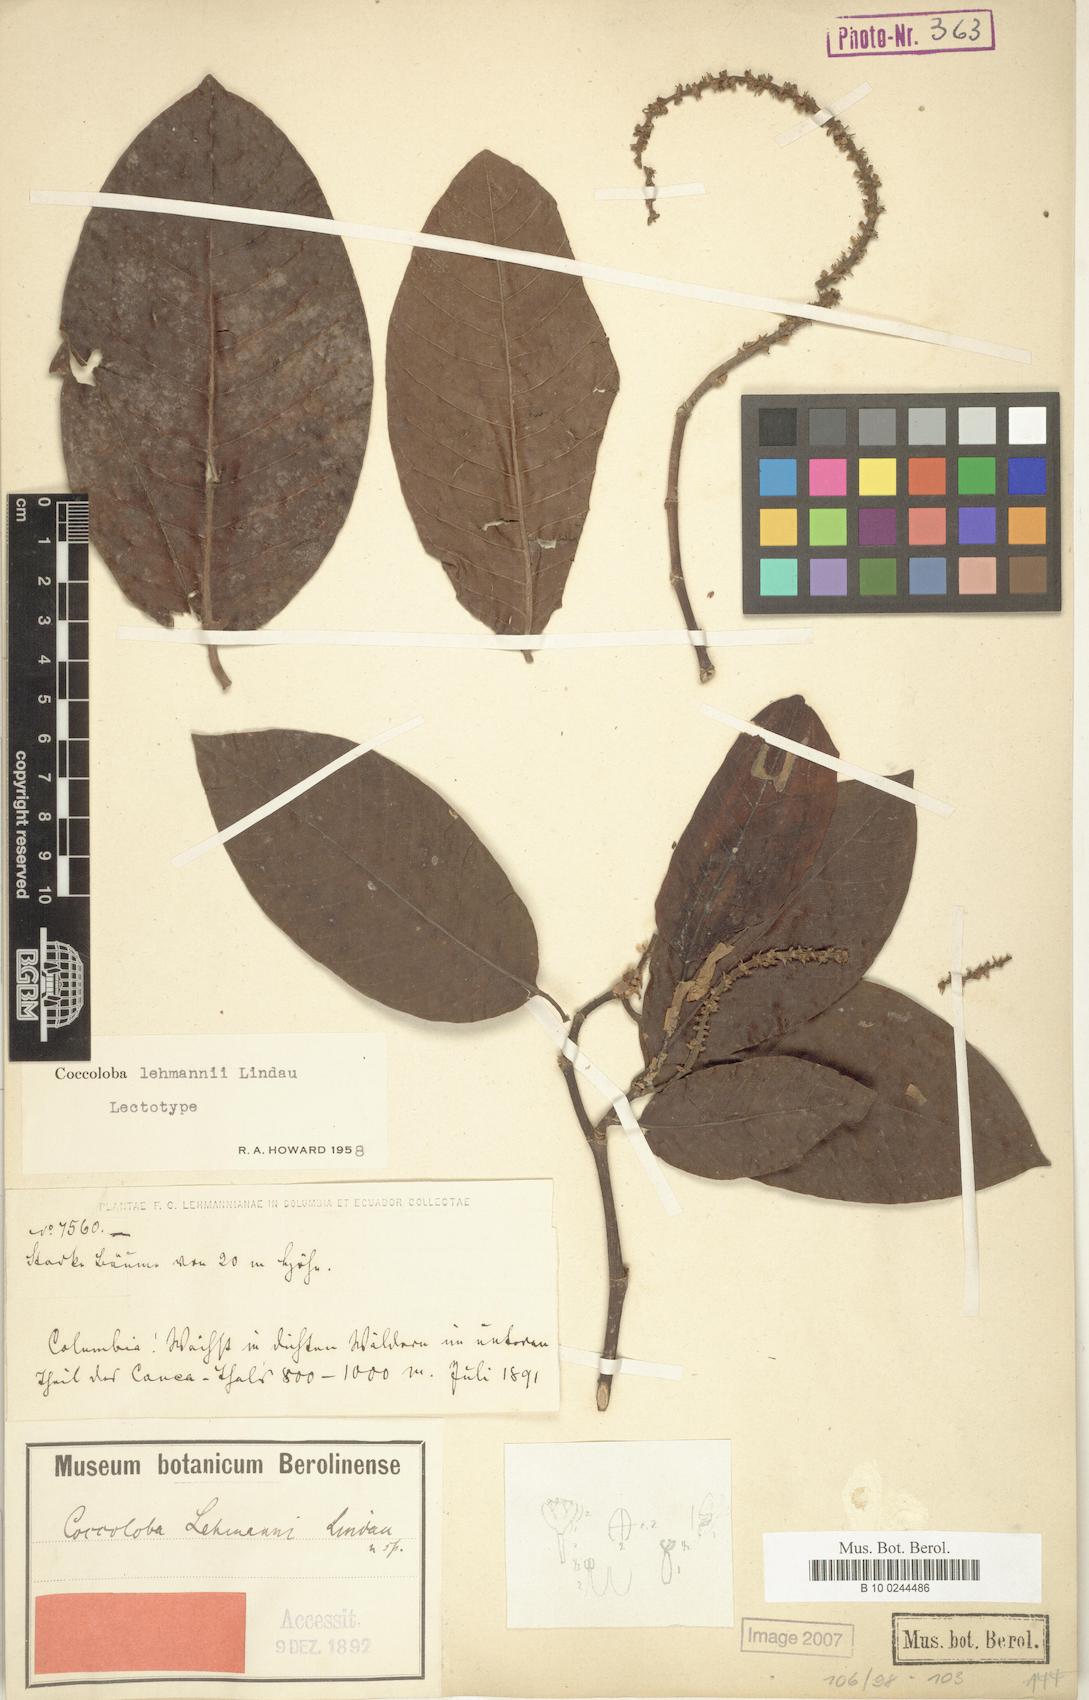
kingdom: Plantae
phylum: Tracheophyta
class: Magnoliopsida
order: Caryophyllales
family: Polygonaceae
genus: Coccoloba
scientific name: Coccoloba lehmannii
